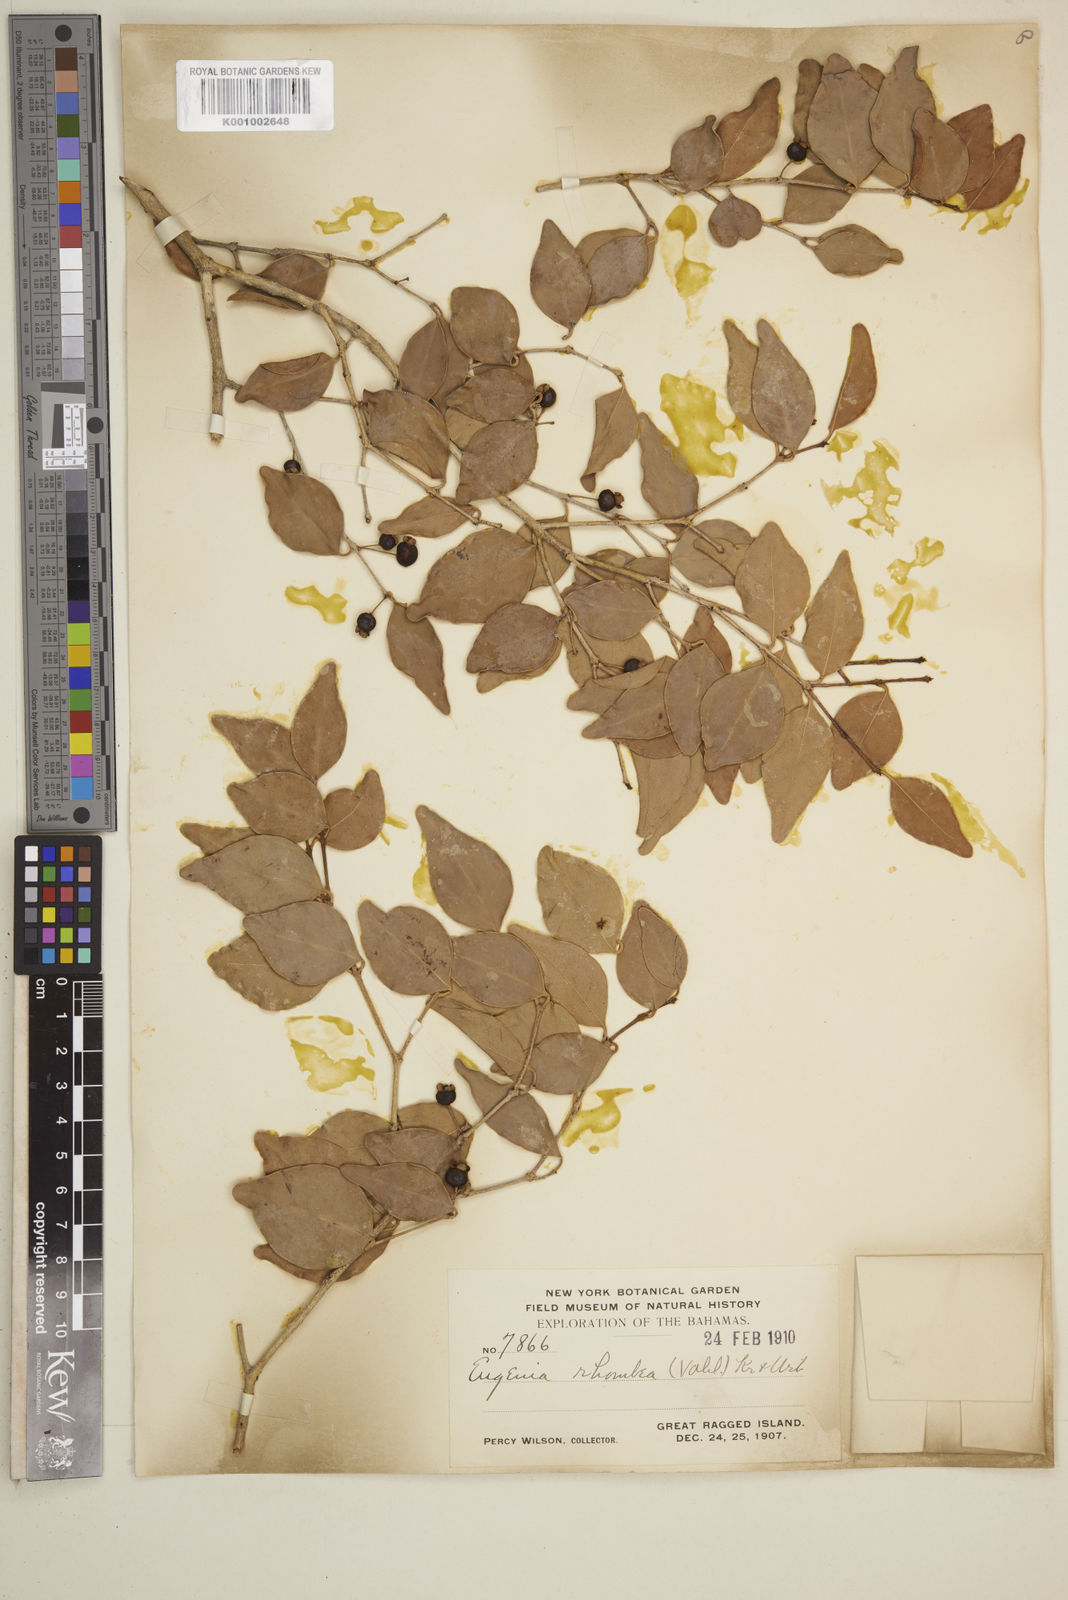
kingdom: Plantae
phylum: Tracheophyta
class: Magnoliopsida
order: Myrtales
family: Myrtaceae
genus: Eugenia
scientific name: Eugenia rhombea
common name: Pigeon berry
